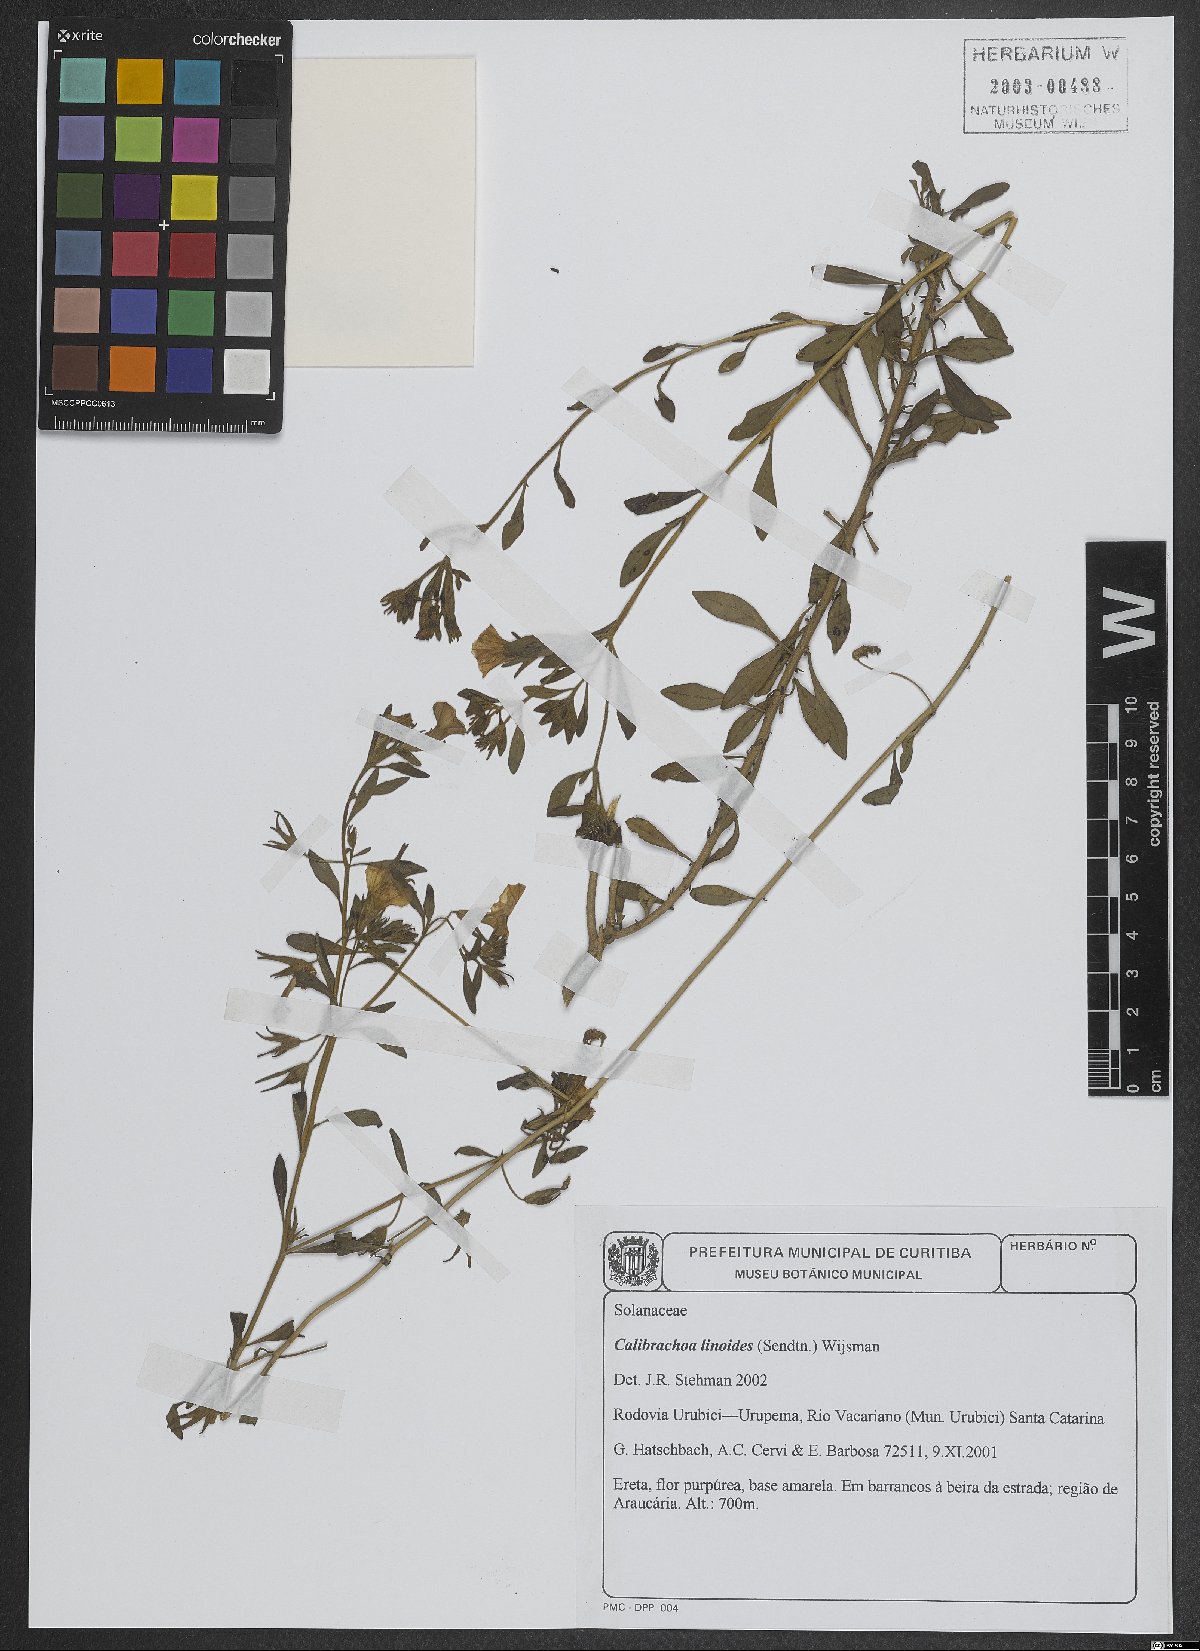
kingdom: Plantae
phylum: Tracheophyta
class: Magnoliopsida
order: Solanales
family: Solanaceae
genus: Calibrachoa
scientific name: Calibrachoa linoides
